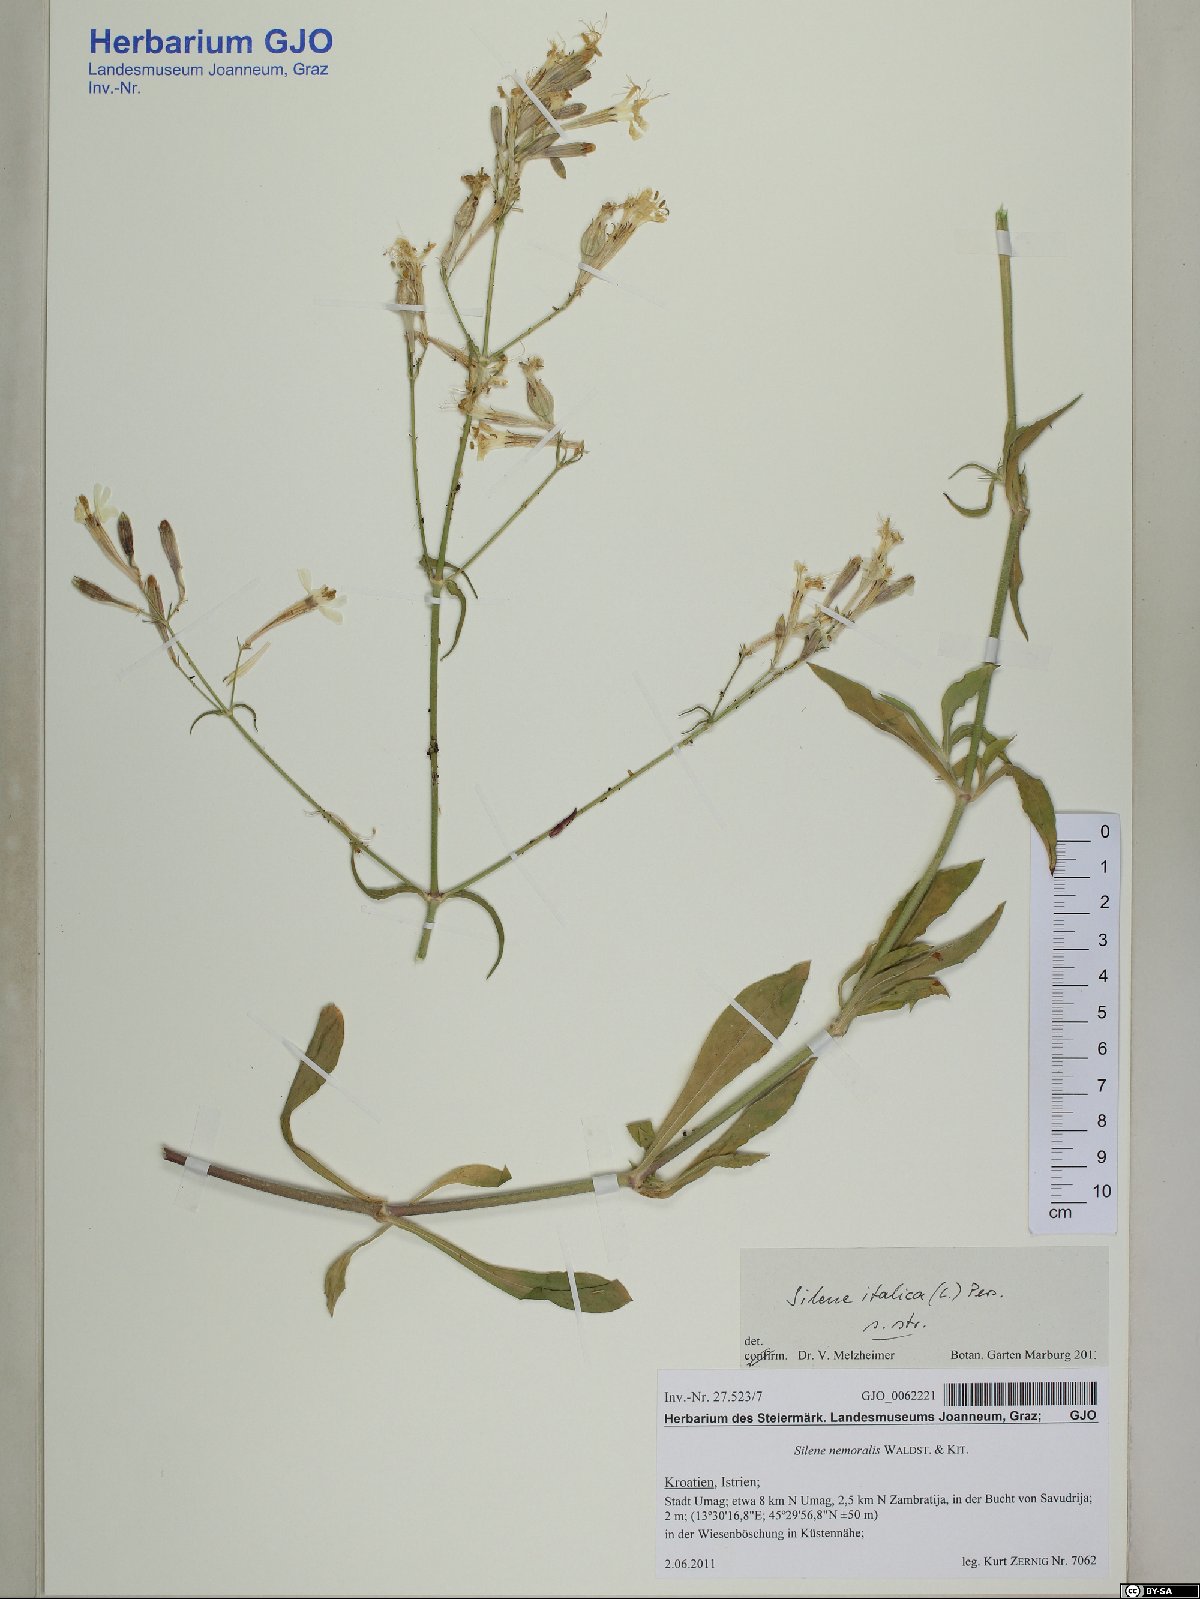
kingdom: Plantae
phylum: Tracheophyta
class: Magnoliopsida
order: Caryophyllales
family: Caryophyllaceae
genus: Silene
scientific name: Silene italica
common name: Italian catchfly
